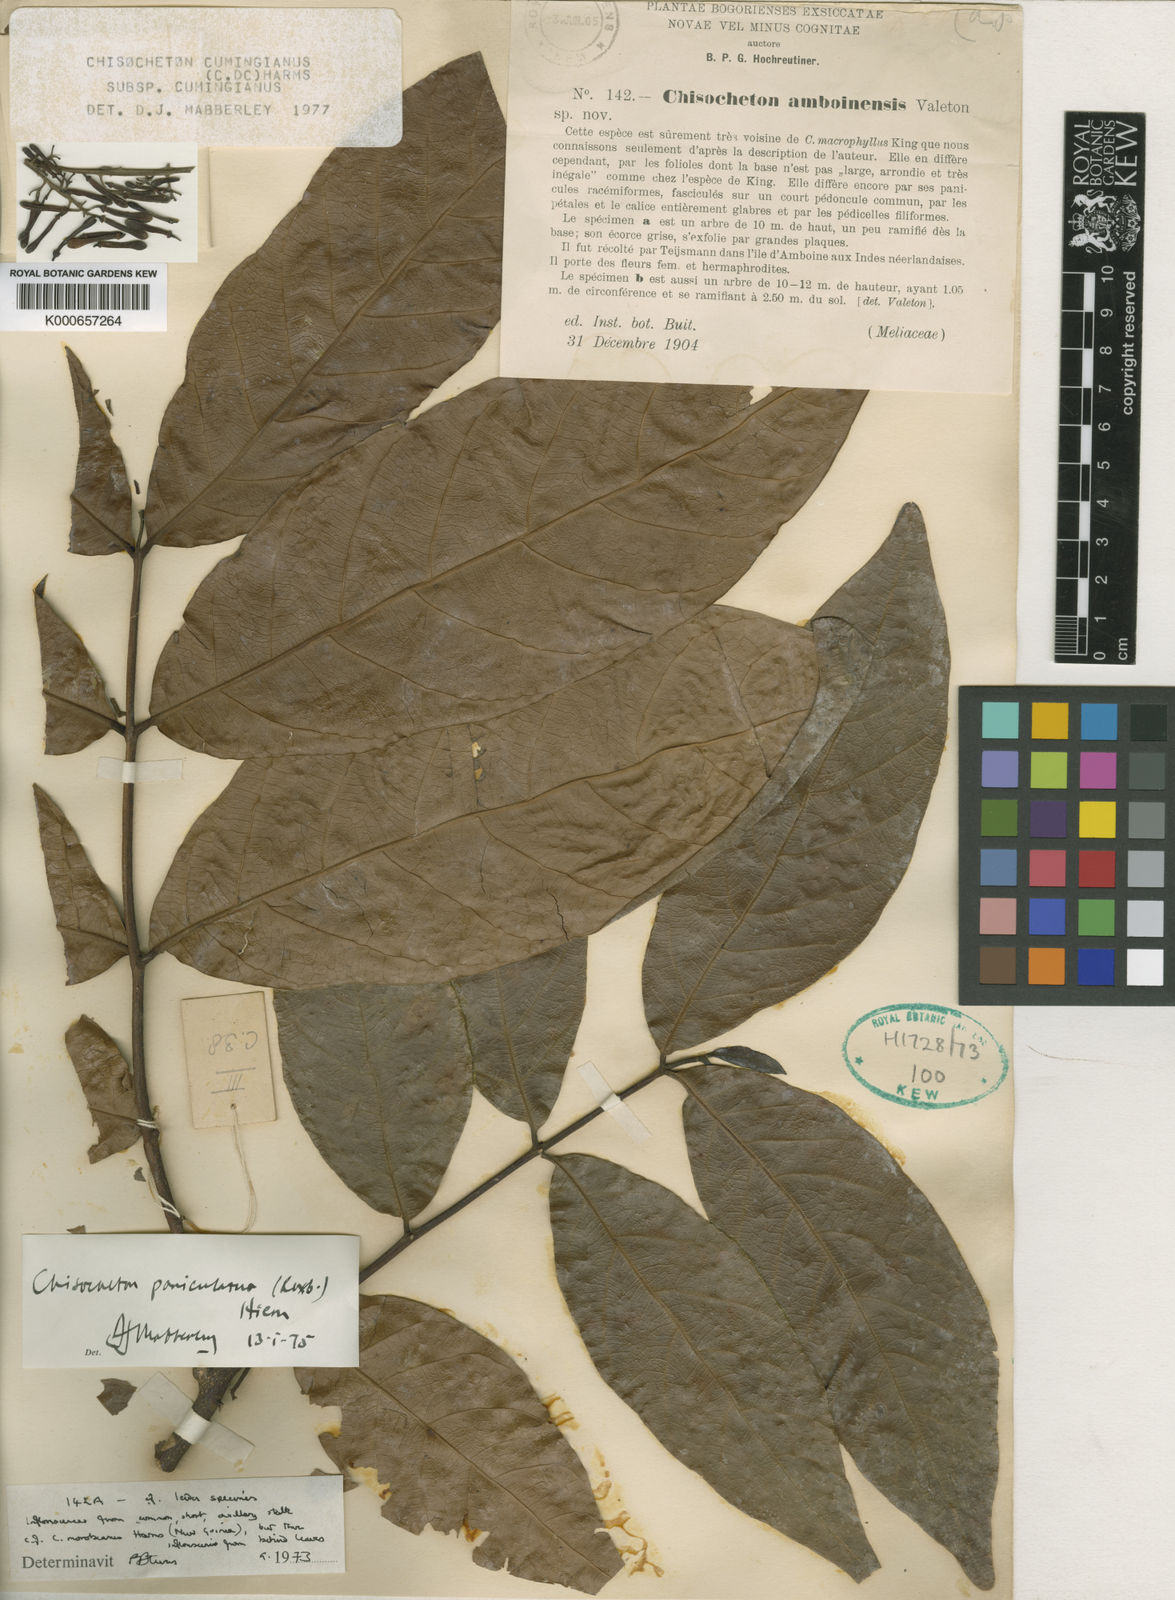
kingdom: Plantae
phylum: Tracheophyta
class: Magnoliopsida
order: Sapindales
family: Meliaceae
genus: Chisocheton
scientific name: Chisocheton cumingianus
